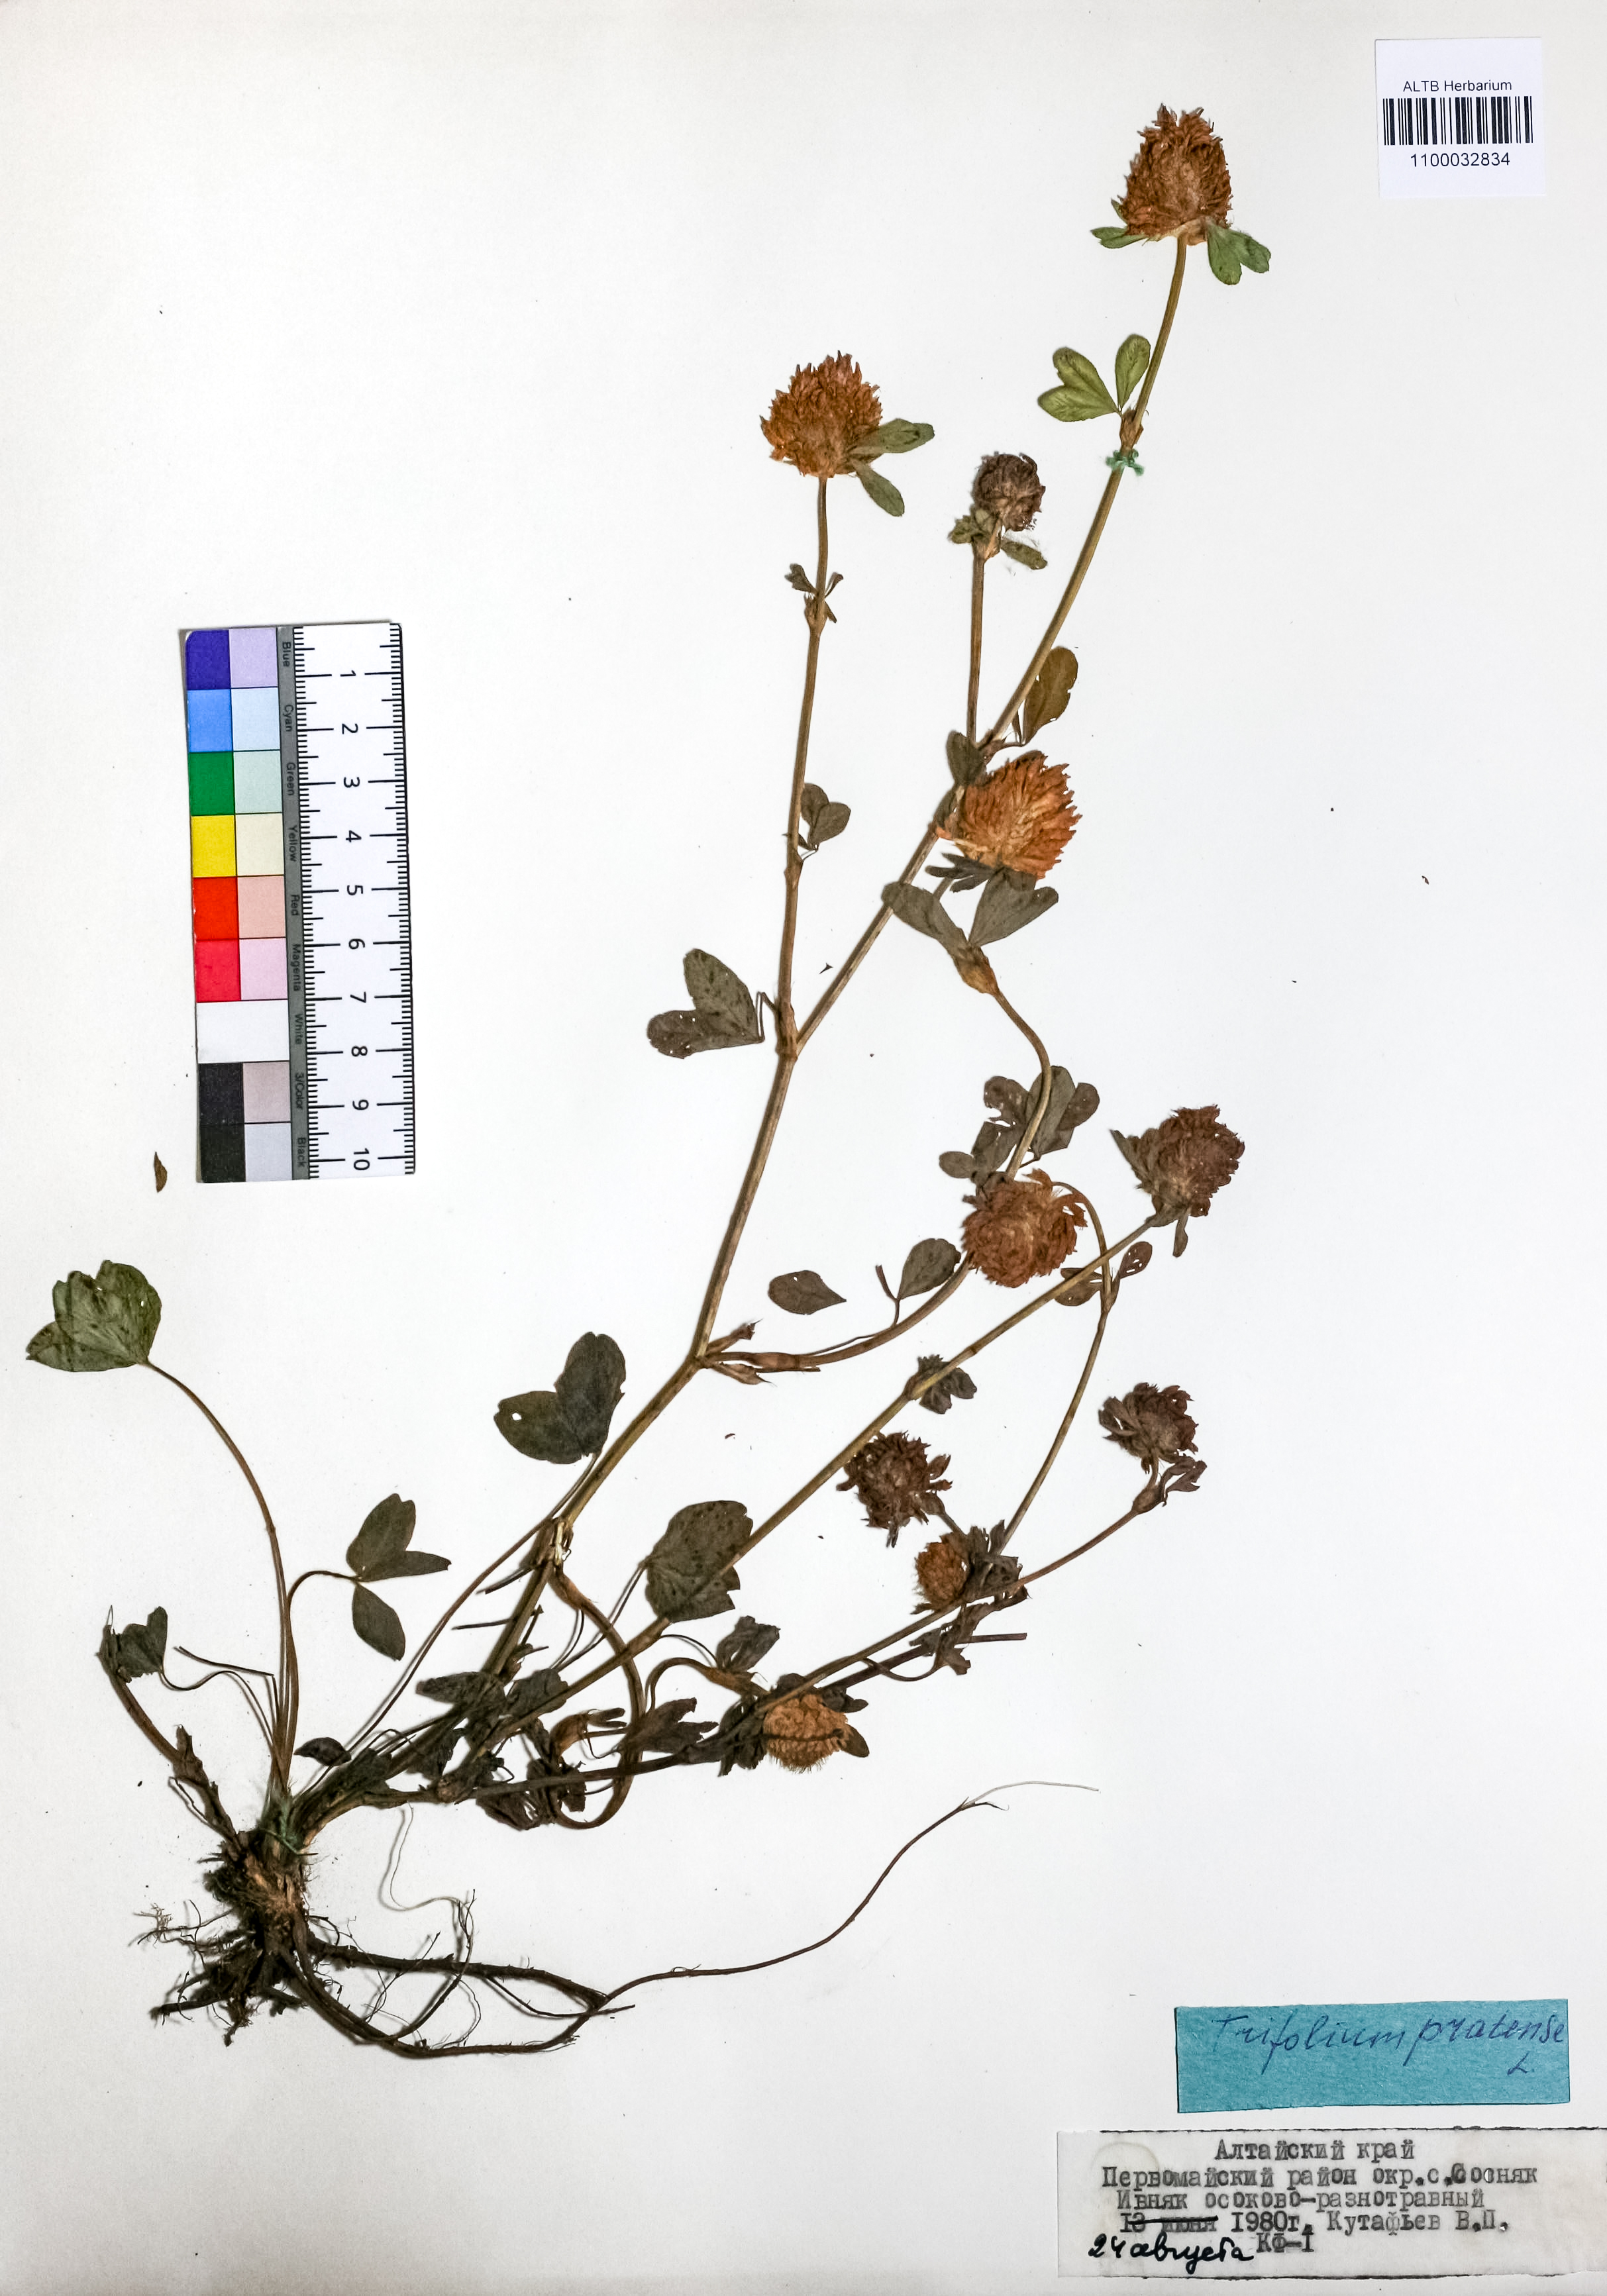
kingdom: Plantae
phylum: Tracheophyta
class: Magnoliopsida
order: Fabales
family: Fabaceae
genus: Trifolium
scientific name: Trifolium pratense
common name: Red clover
